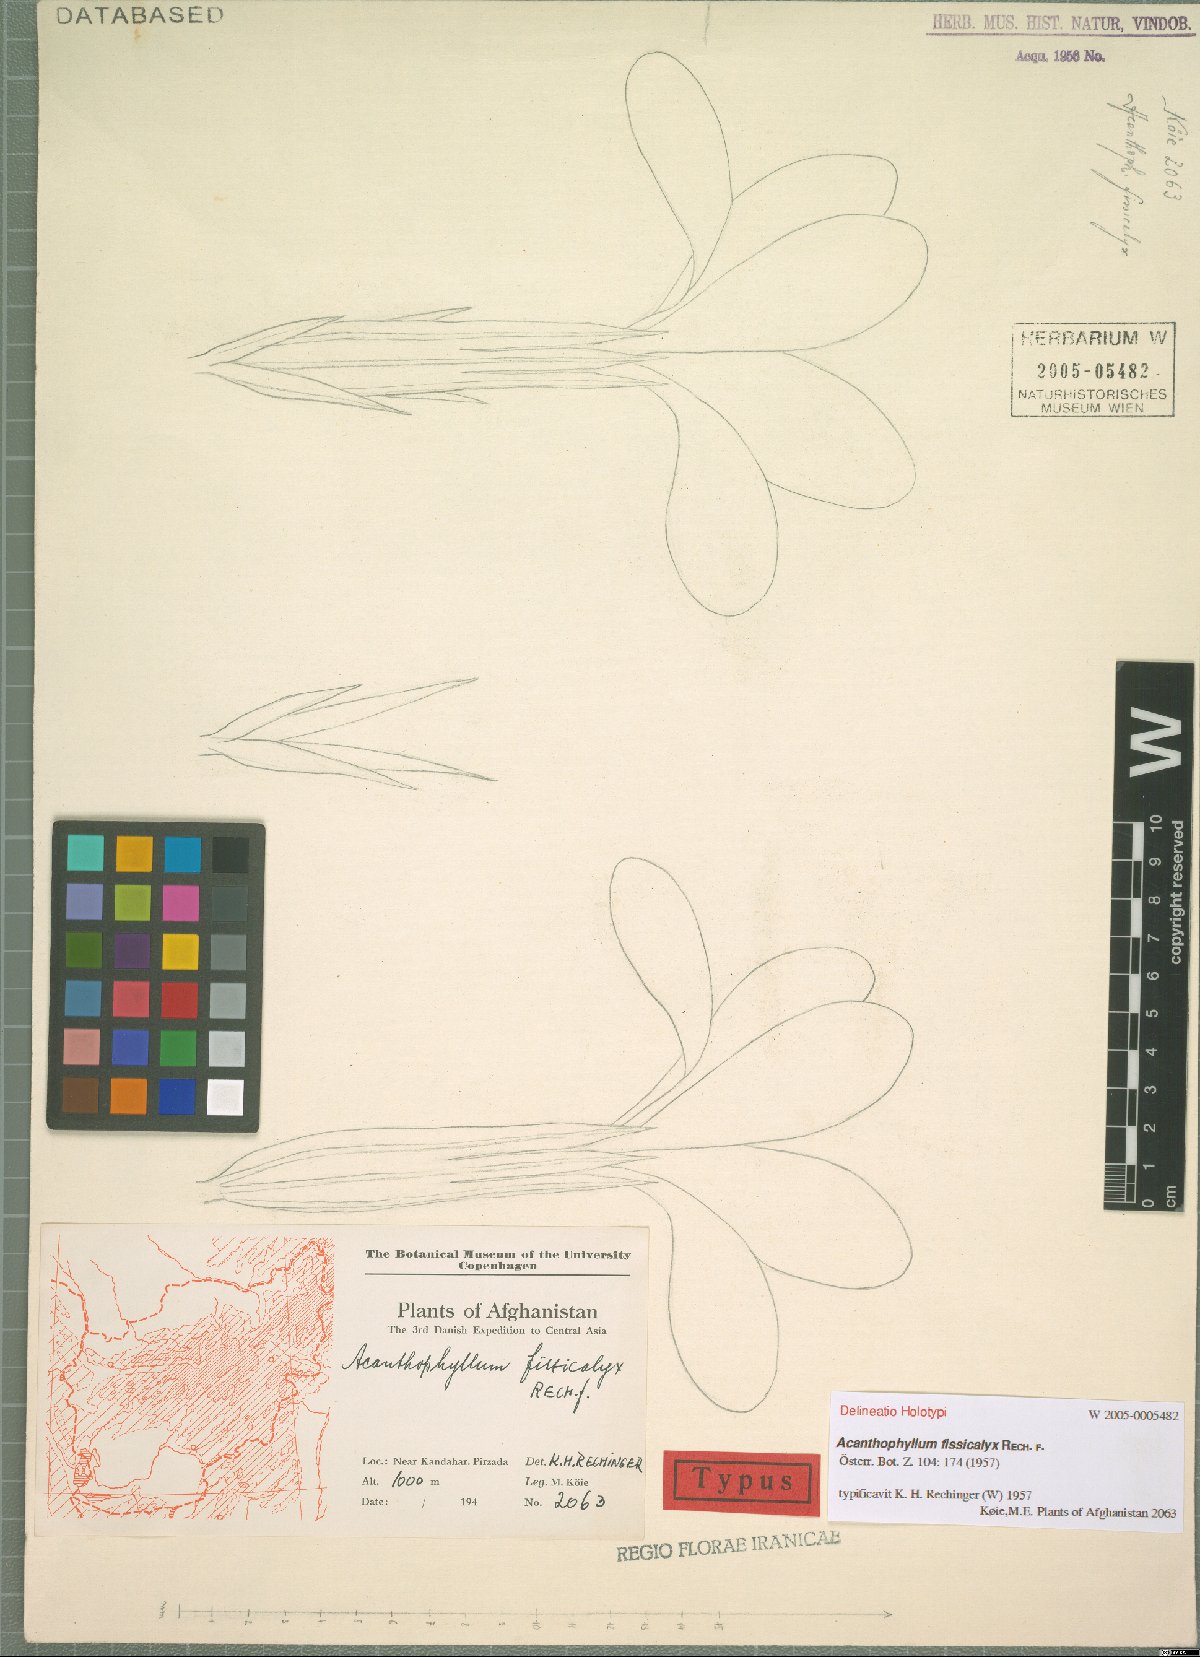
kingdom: Plantae
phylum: Tracheophyta
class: Magnoliopsida
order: Caryophyllales
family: Caryophyllaceae
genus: Acanthophyllum
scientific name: Acanthophyllum grandiflorum
